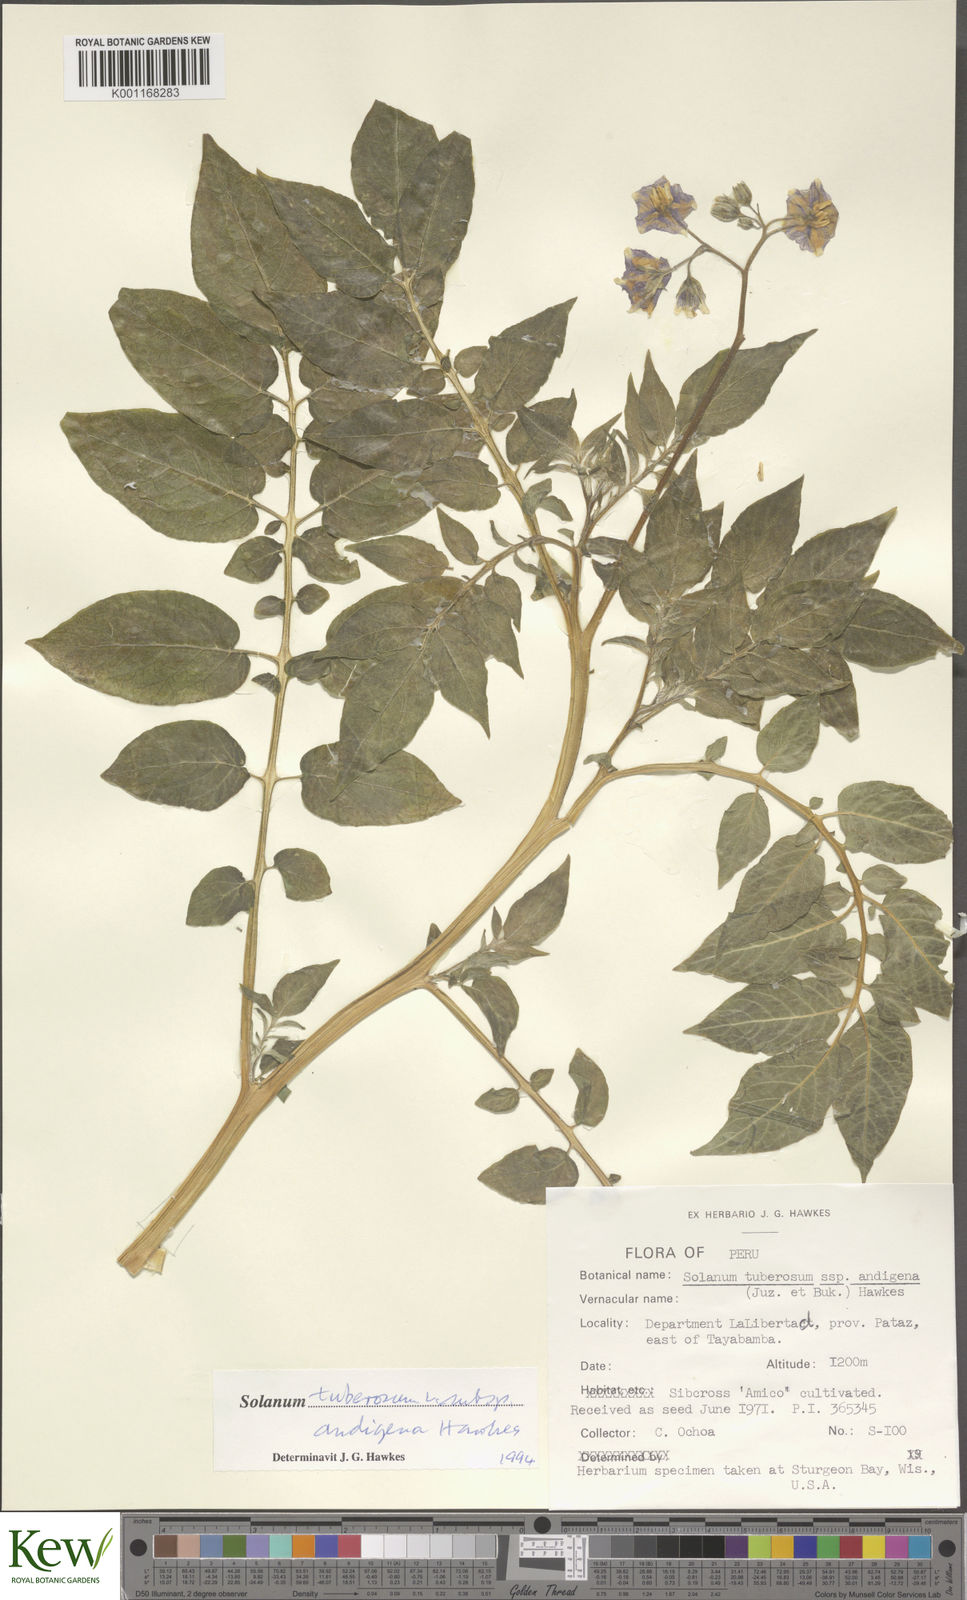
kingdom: Plantae
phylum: Tracheophyta
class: Magnoliopsida
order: Solanales
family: Solanaceae
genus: Solanum
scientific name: Solanum tuberosum
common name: Potato
